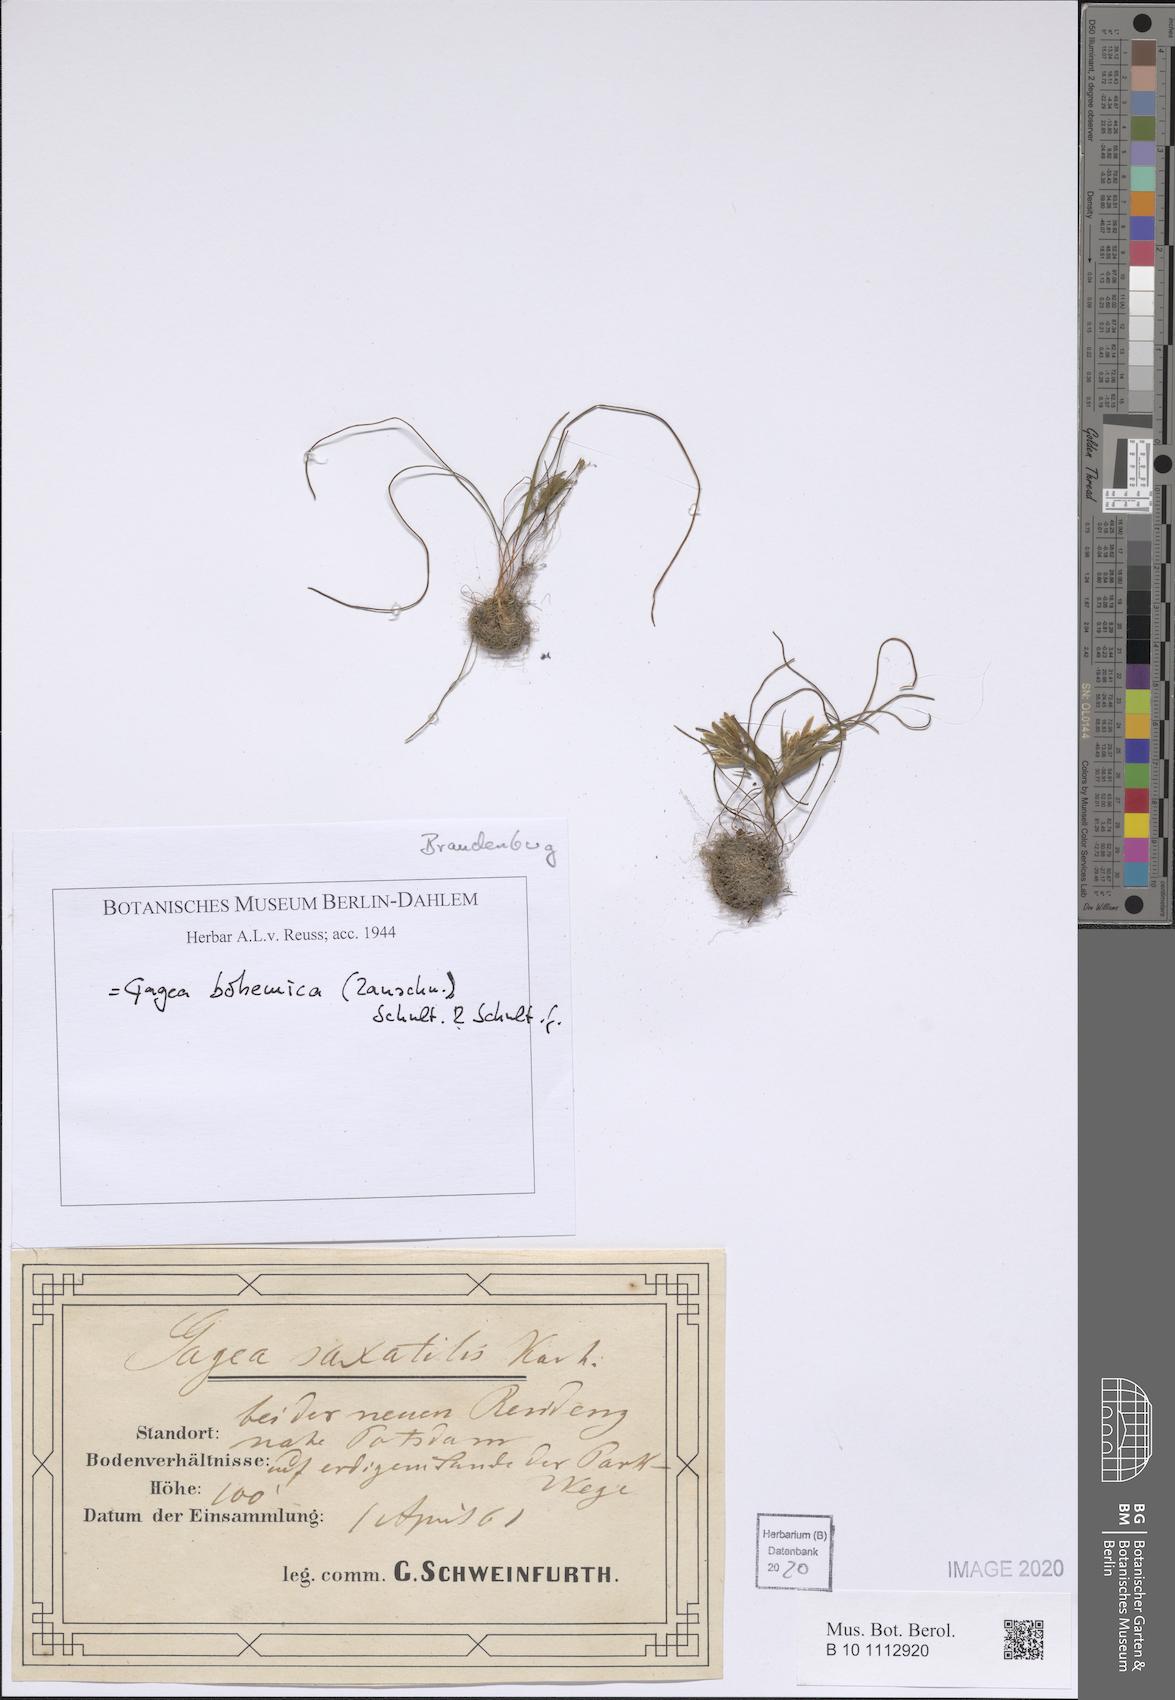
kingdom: Plantae
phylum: Tracheophyta
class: Liliopsida
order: Liliales
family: Liliaceae
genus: Gagea
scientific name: Gagea bohemica
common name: Early star-of-bethlehem
